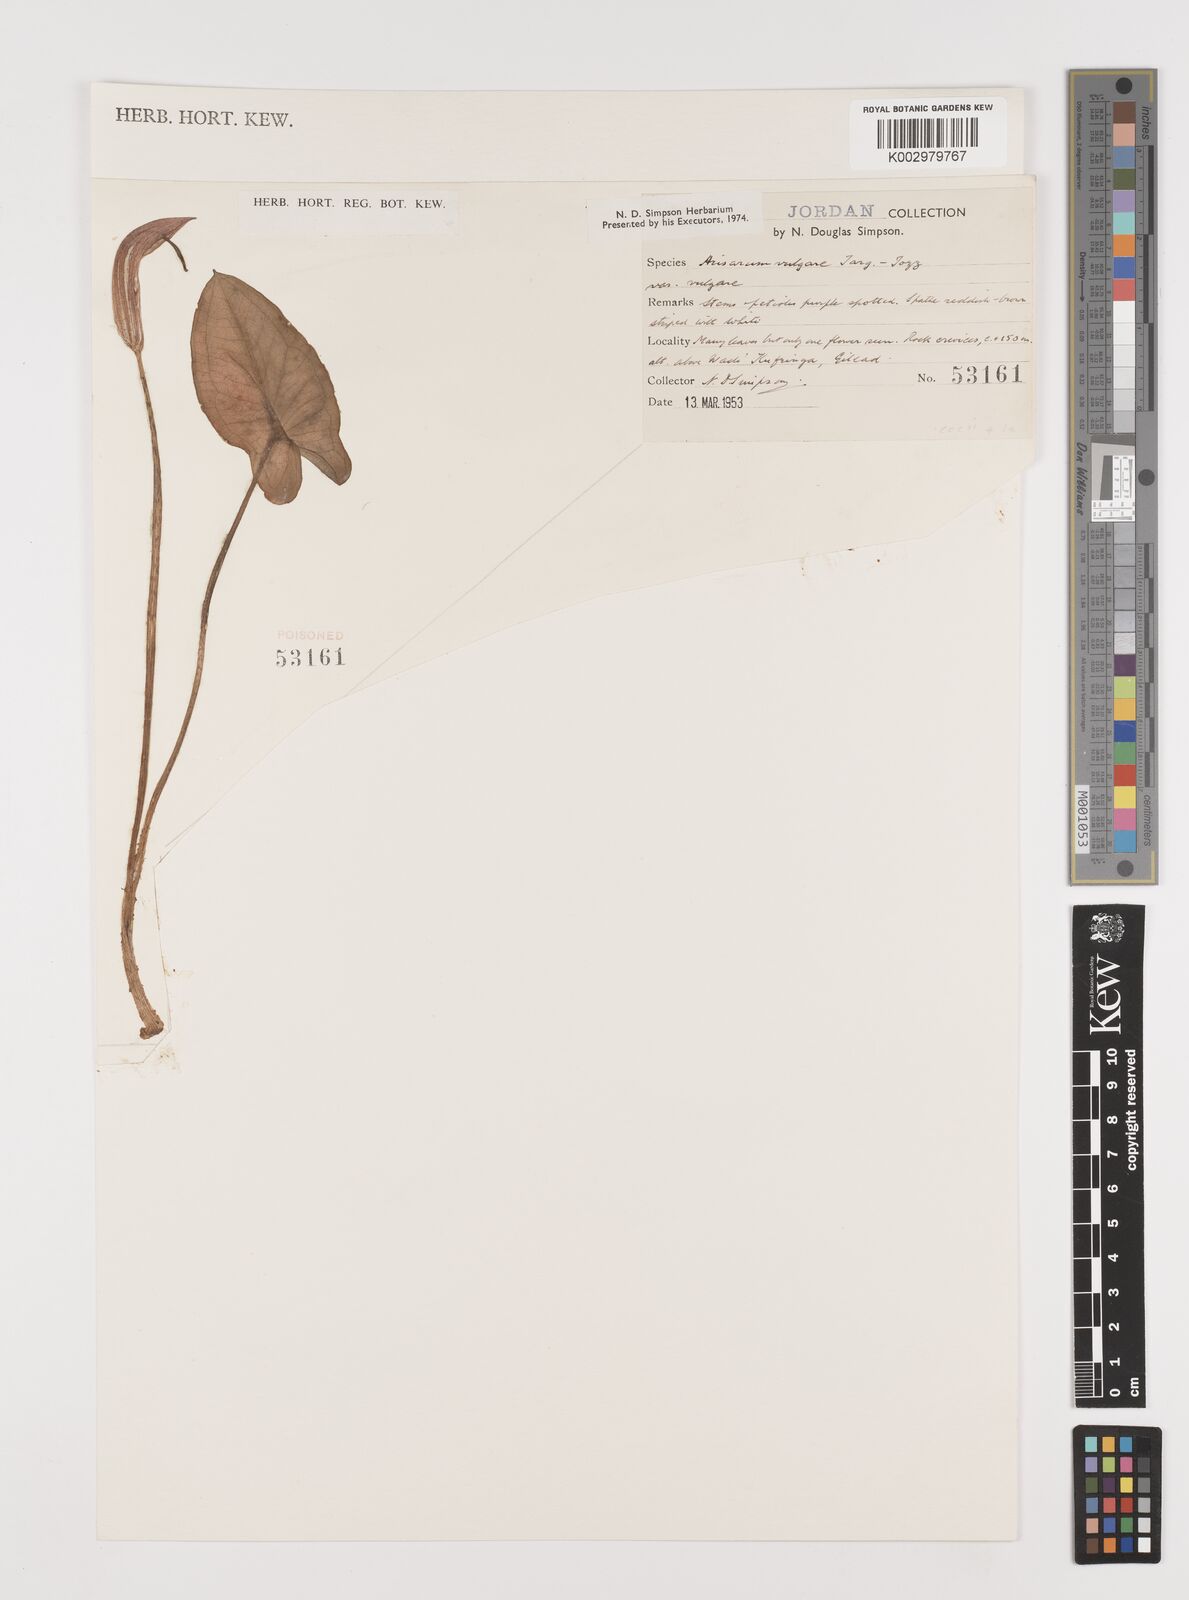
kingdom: Plantae
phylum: Tracheophyta
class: Liliopsida
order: Alismatales
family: Araceae
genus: Arisarum
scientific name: Arisarum vulgare
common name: Common arisarum
